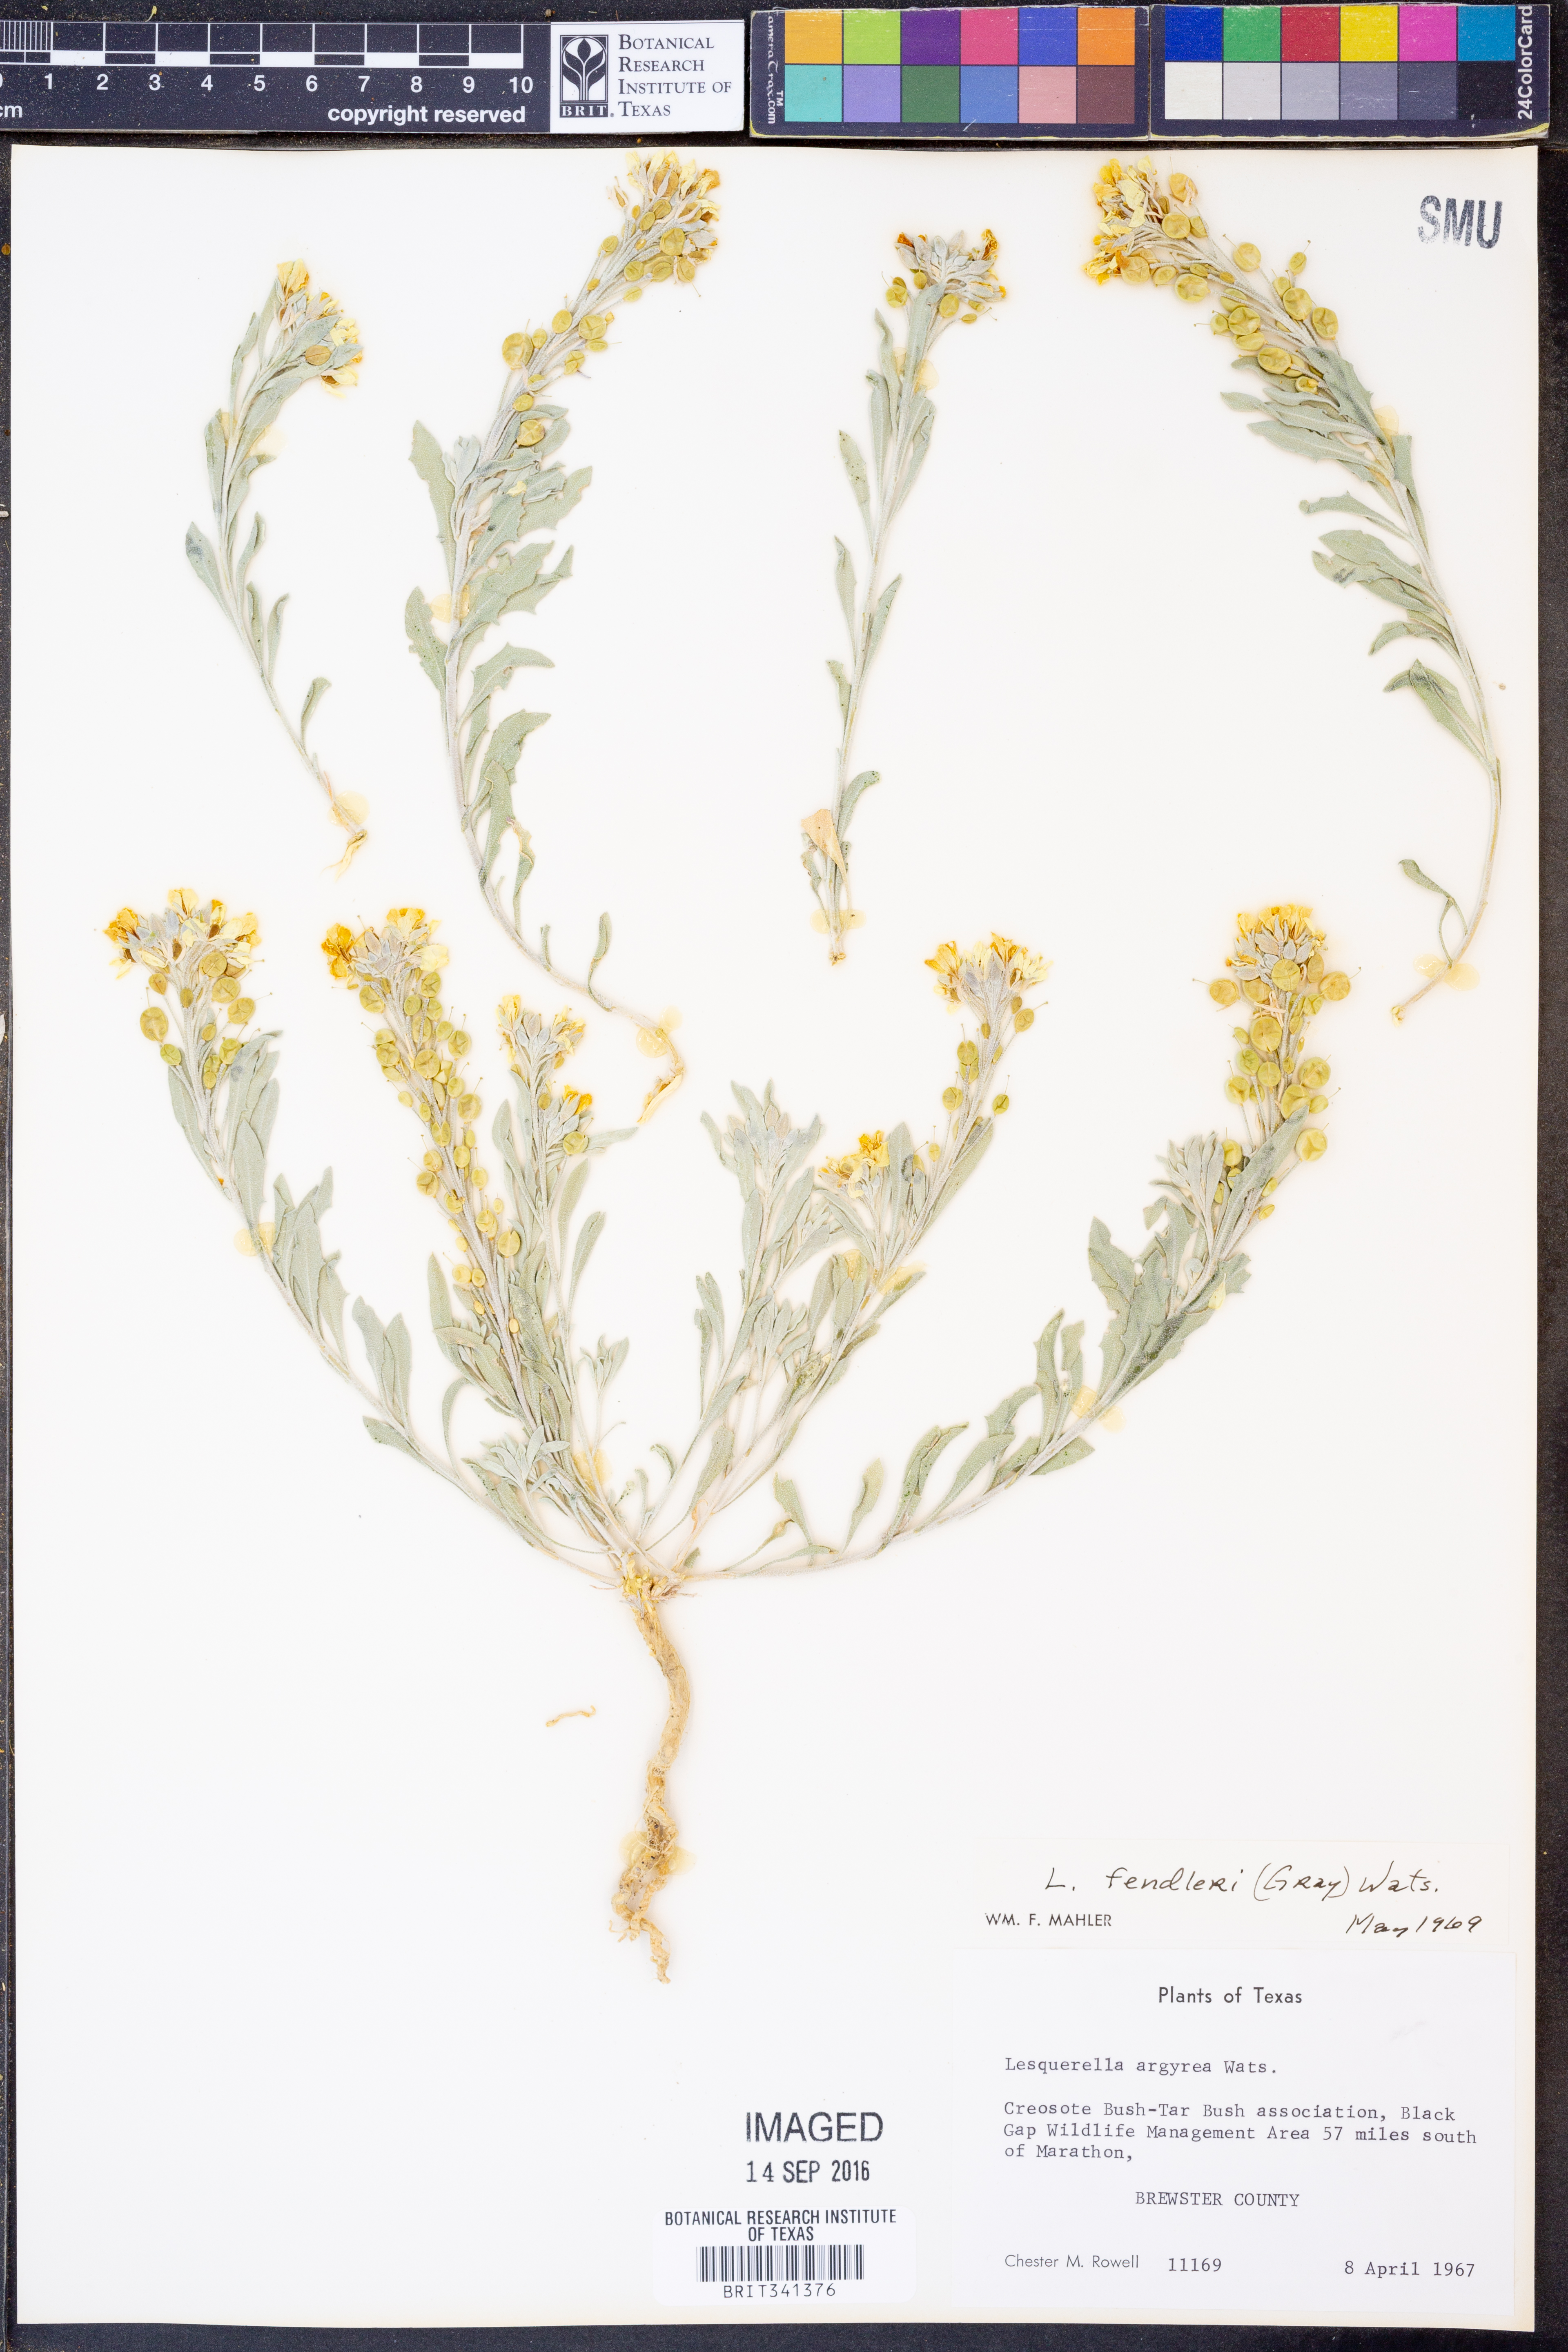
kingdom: Plantae
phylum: Tracheophyta
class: Magnoliopsida
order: Brassicales
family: Brassicaceae
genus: Physaria
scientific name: Physaria fendleri
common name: Fendler's bladderpod
